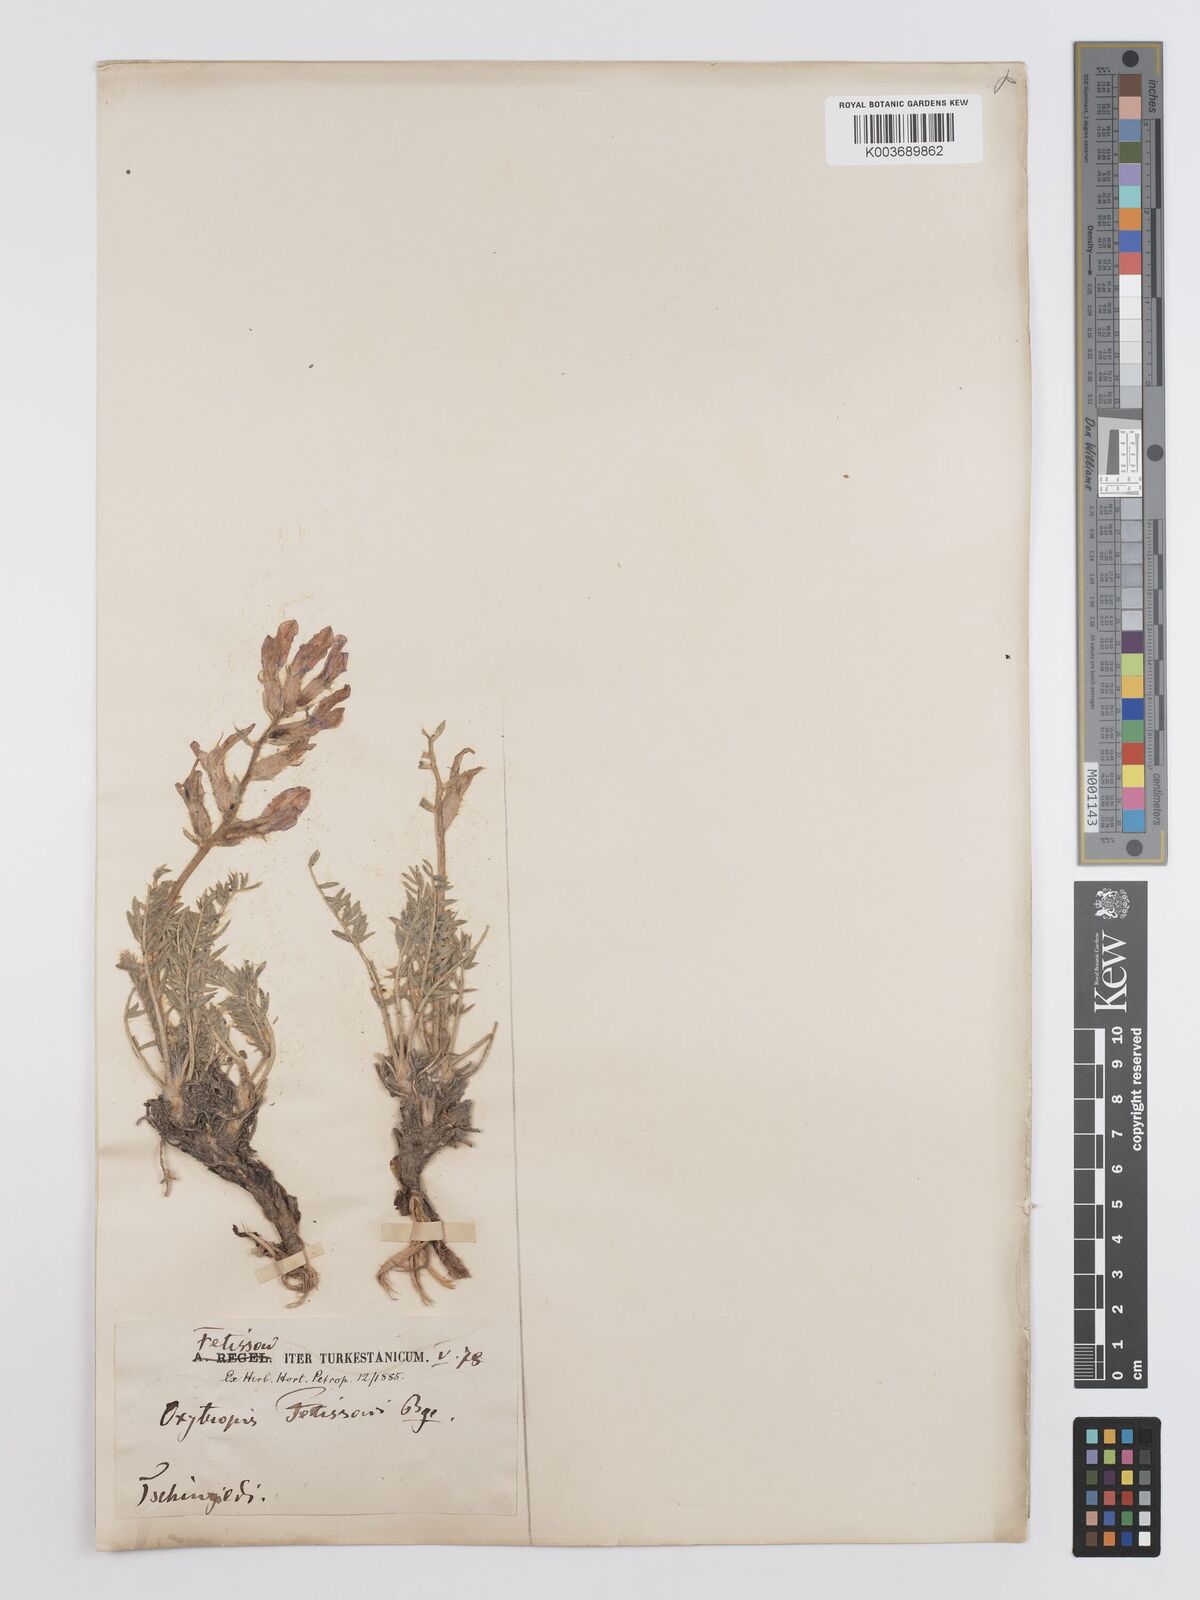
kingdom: Plantae
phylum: Tracheophyta
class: Magnoliopsida
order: Fabales
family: Fabaceae
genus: Oxytropis
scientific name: Oxytropis fetisowii
